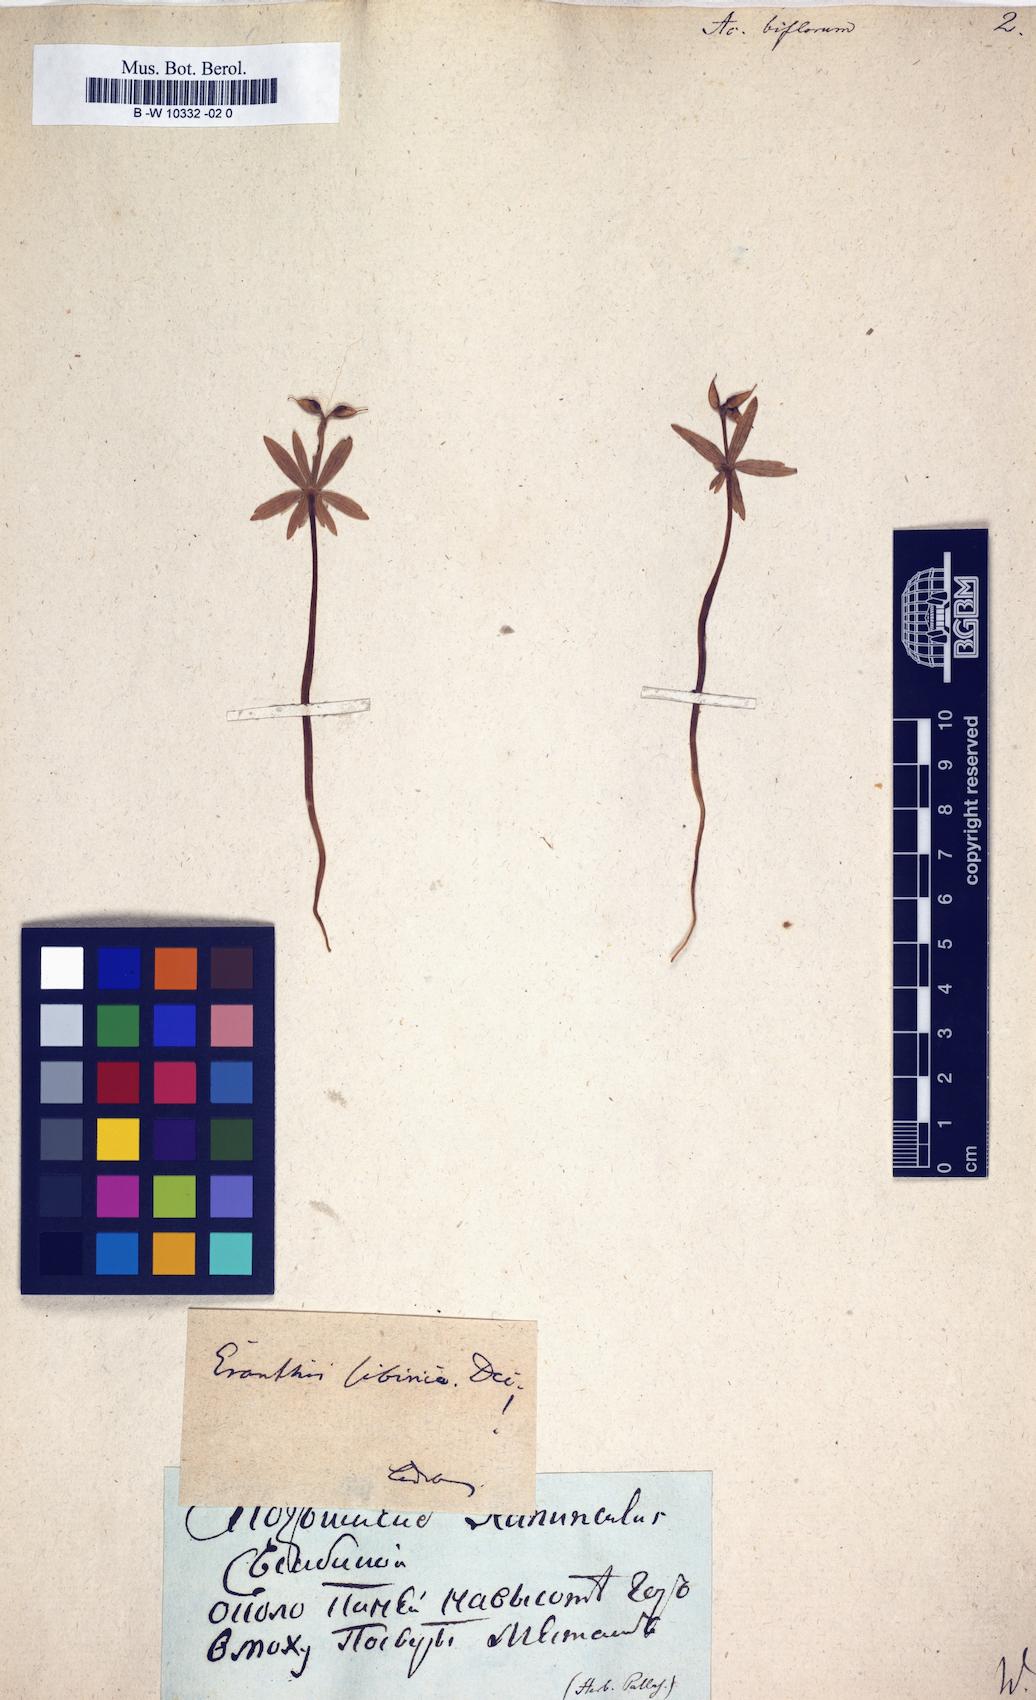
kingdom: Plantae
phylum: Tracheophyta
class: Magnoliopsida
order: Ranunculales
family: Ranunculaceae
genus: Aconitum
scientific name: Aconitum biflorum
